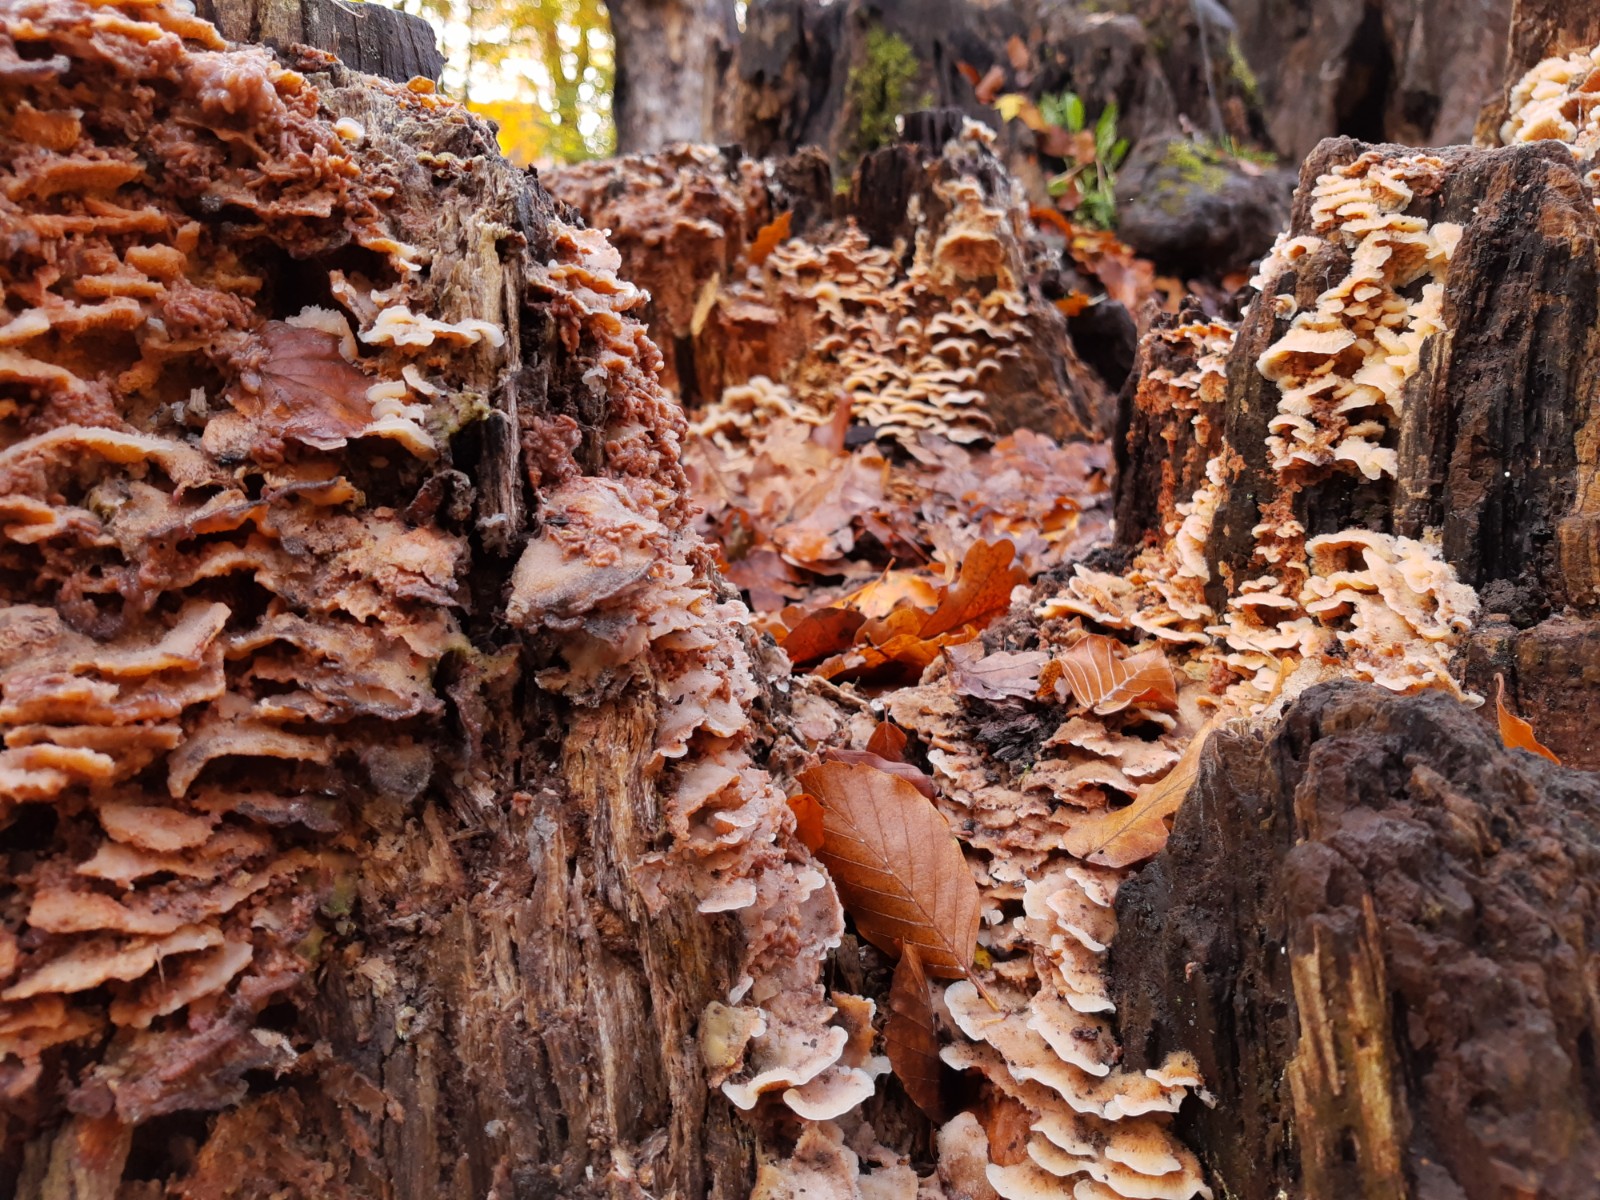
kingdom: Fungi
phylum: Basidiomycota
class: Agaricomycetes
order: Polyporales
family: Meruliaceae
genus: Phlebia
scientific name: Phlebia tremellosa
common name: bævrende åresvamp
